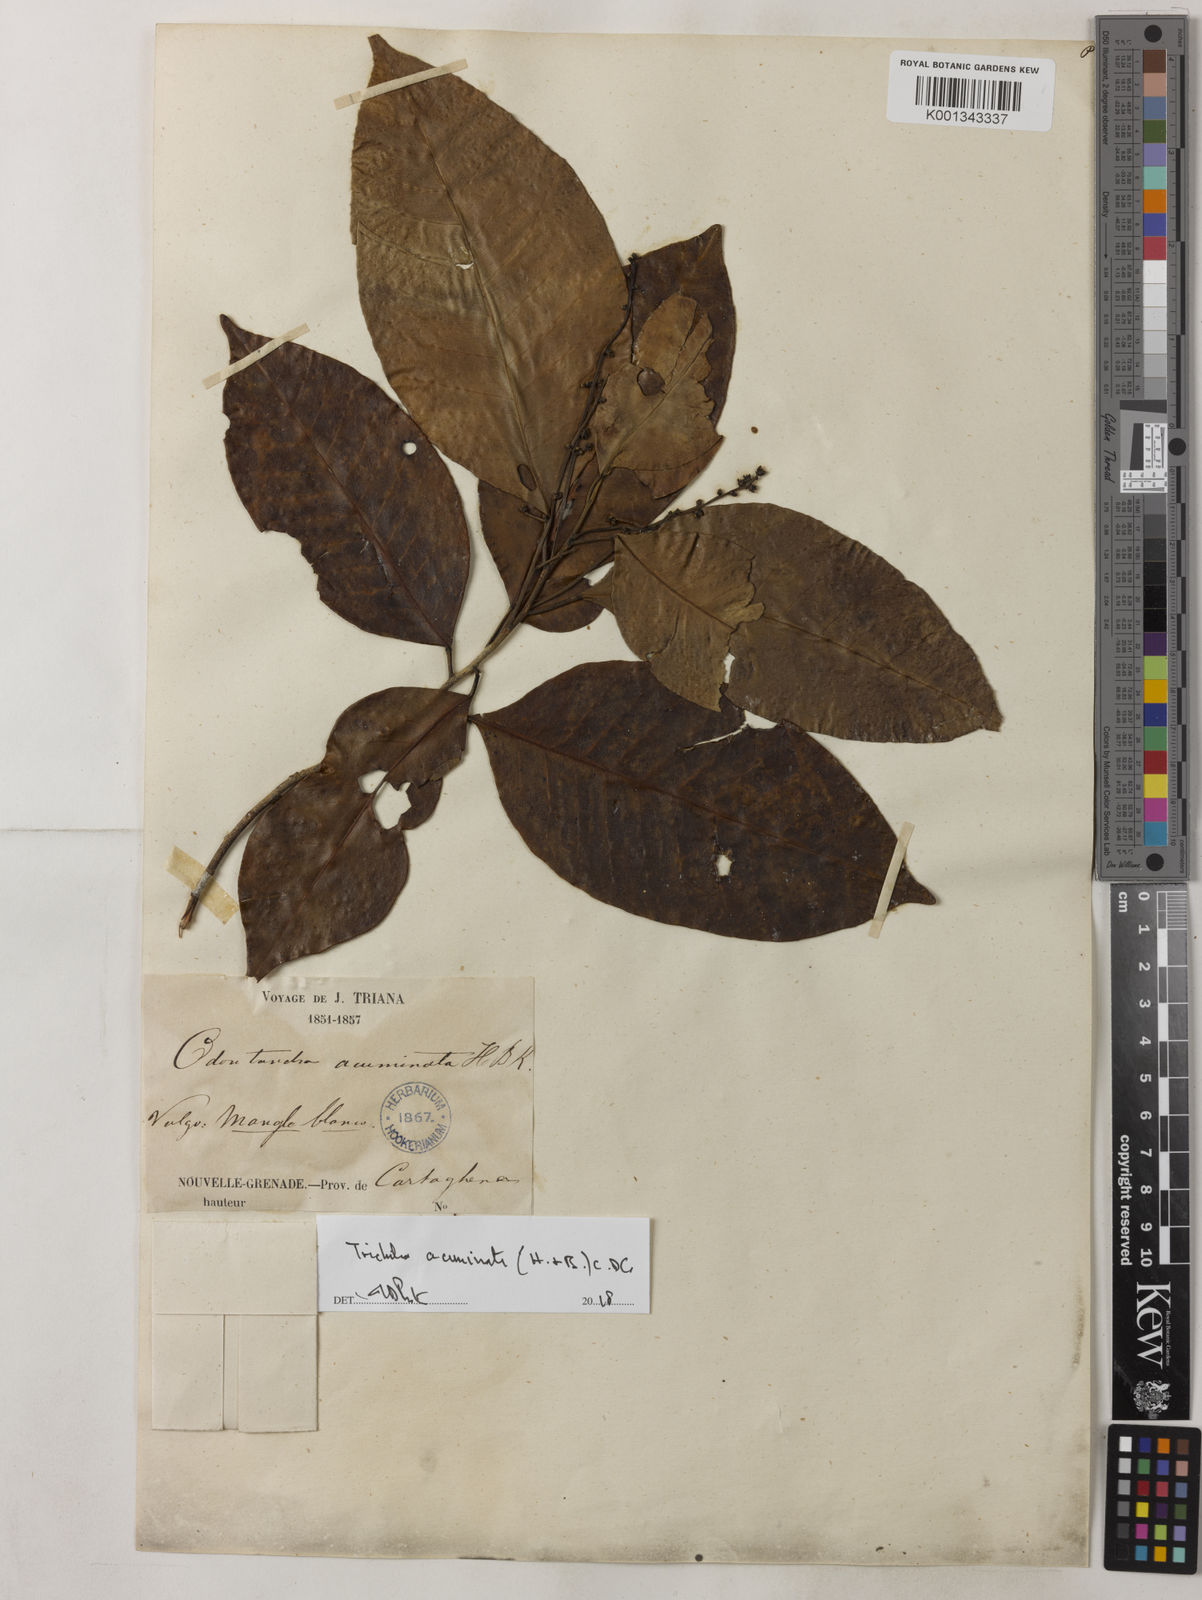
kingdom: Plantae
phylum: Tracheophyta
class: Magnoliopsida
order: Sapindales
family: Meliaceae
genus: Trichilia
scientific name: Trichilia acuminata
